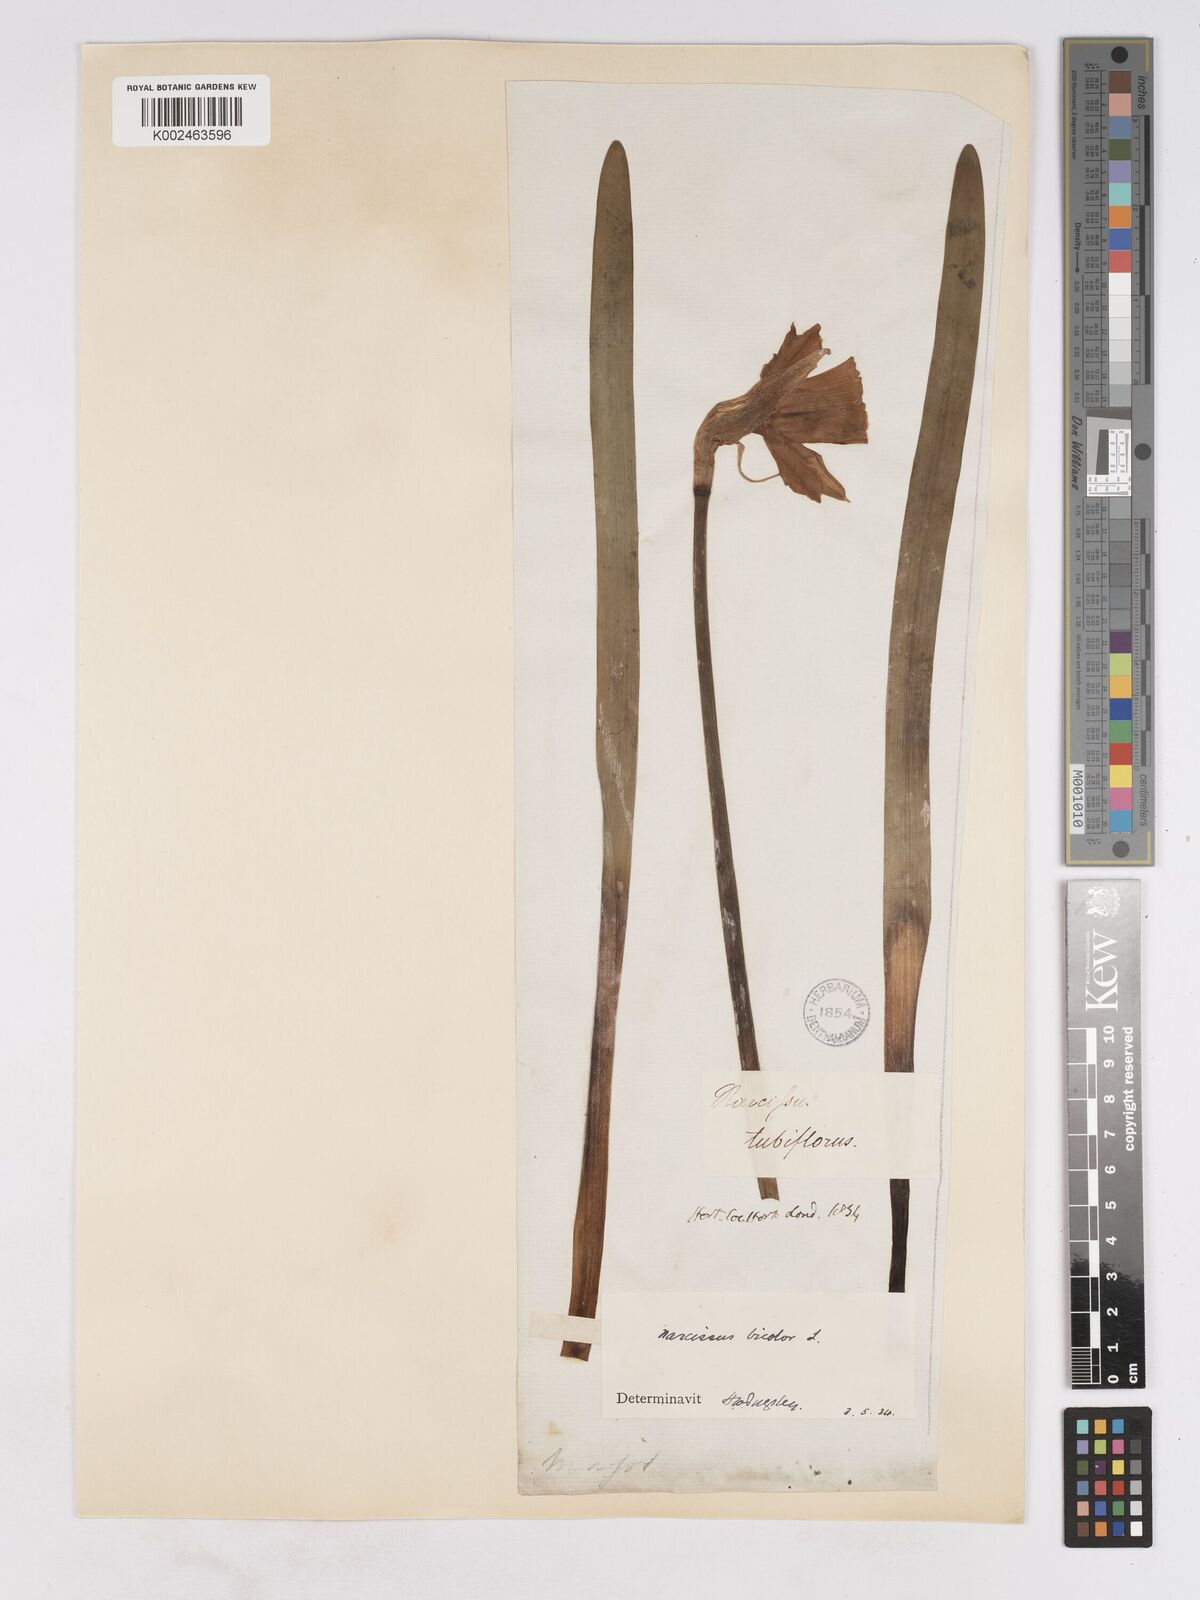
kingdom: Plantae
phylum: Tracheophyta
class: Liliopsida
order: Asparagales
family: Amaryllidaceae
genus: Narcissus
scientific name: Narcissus bicolor
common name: Two-color daffodil
